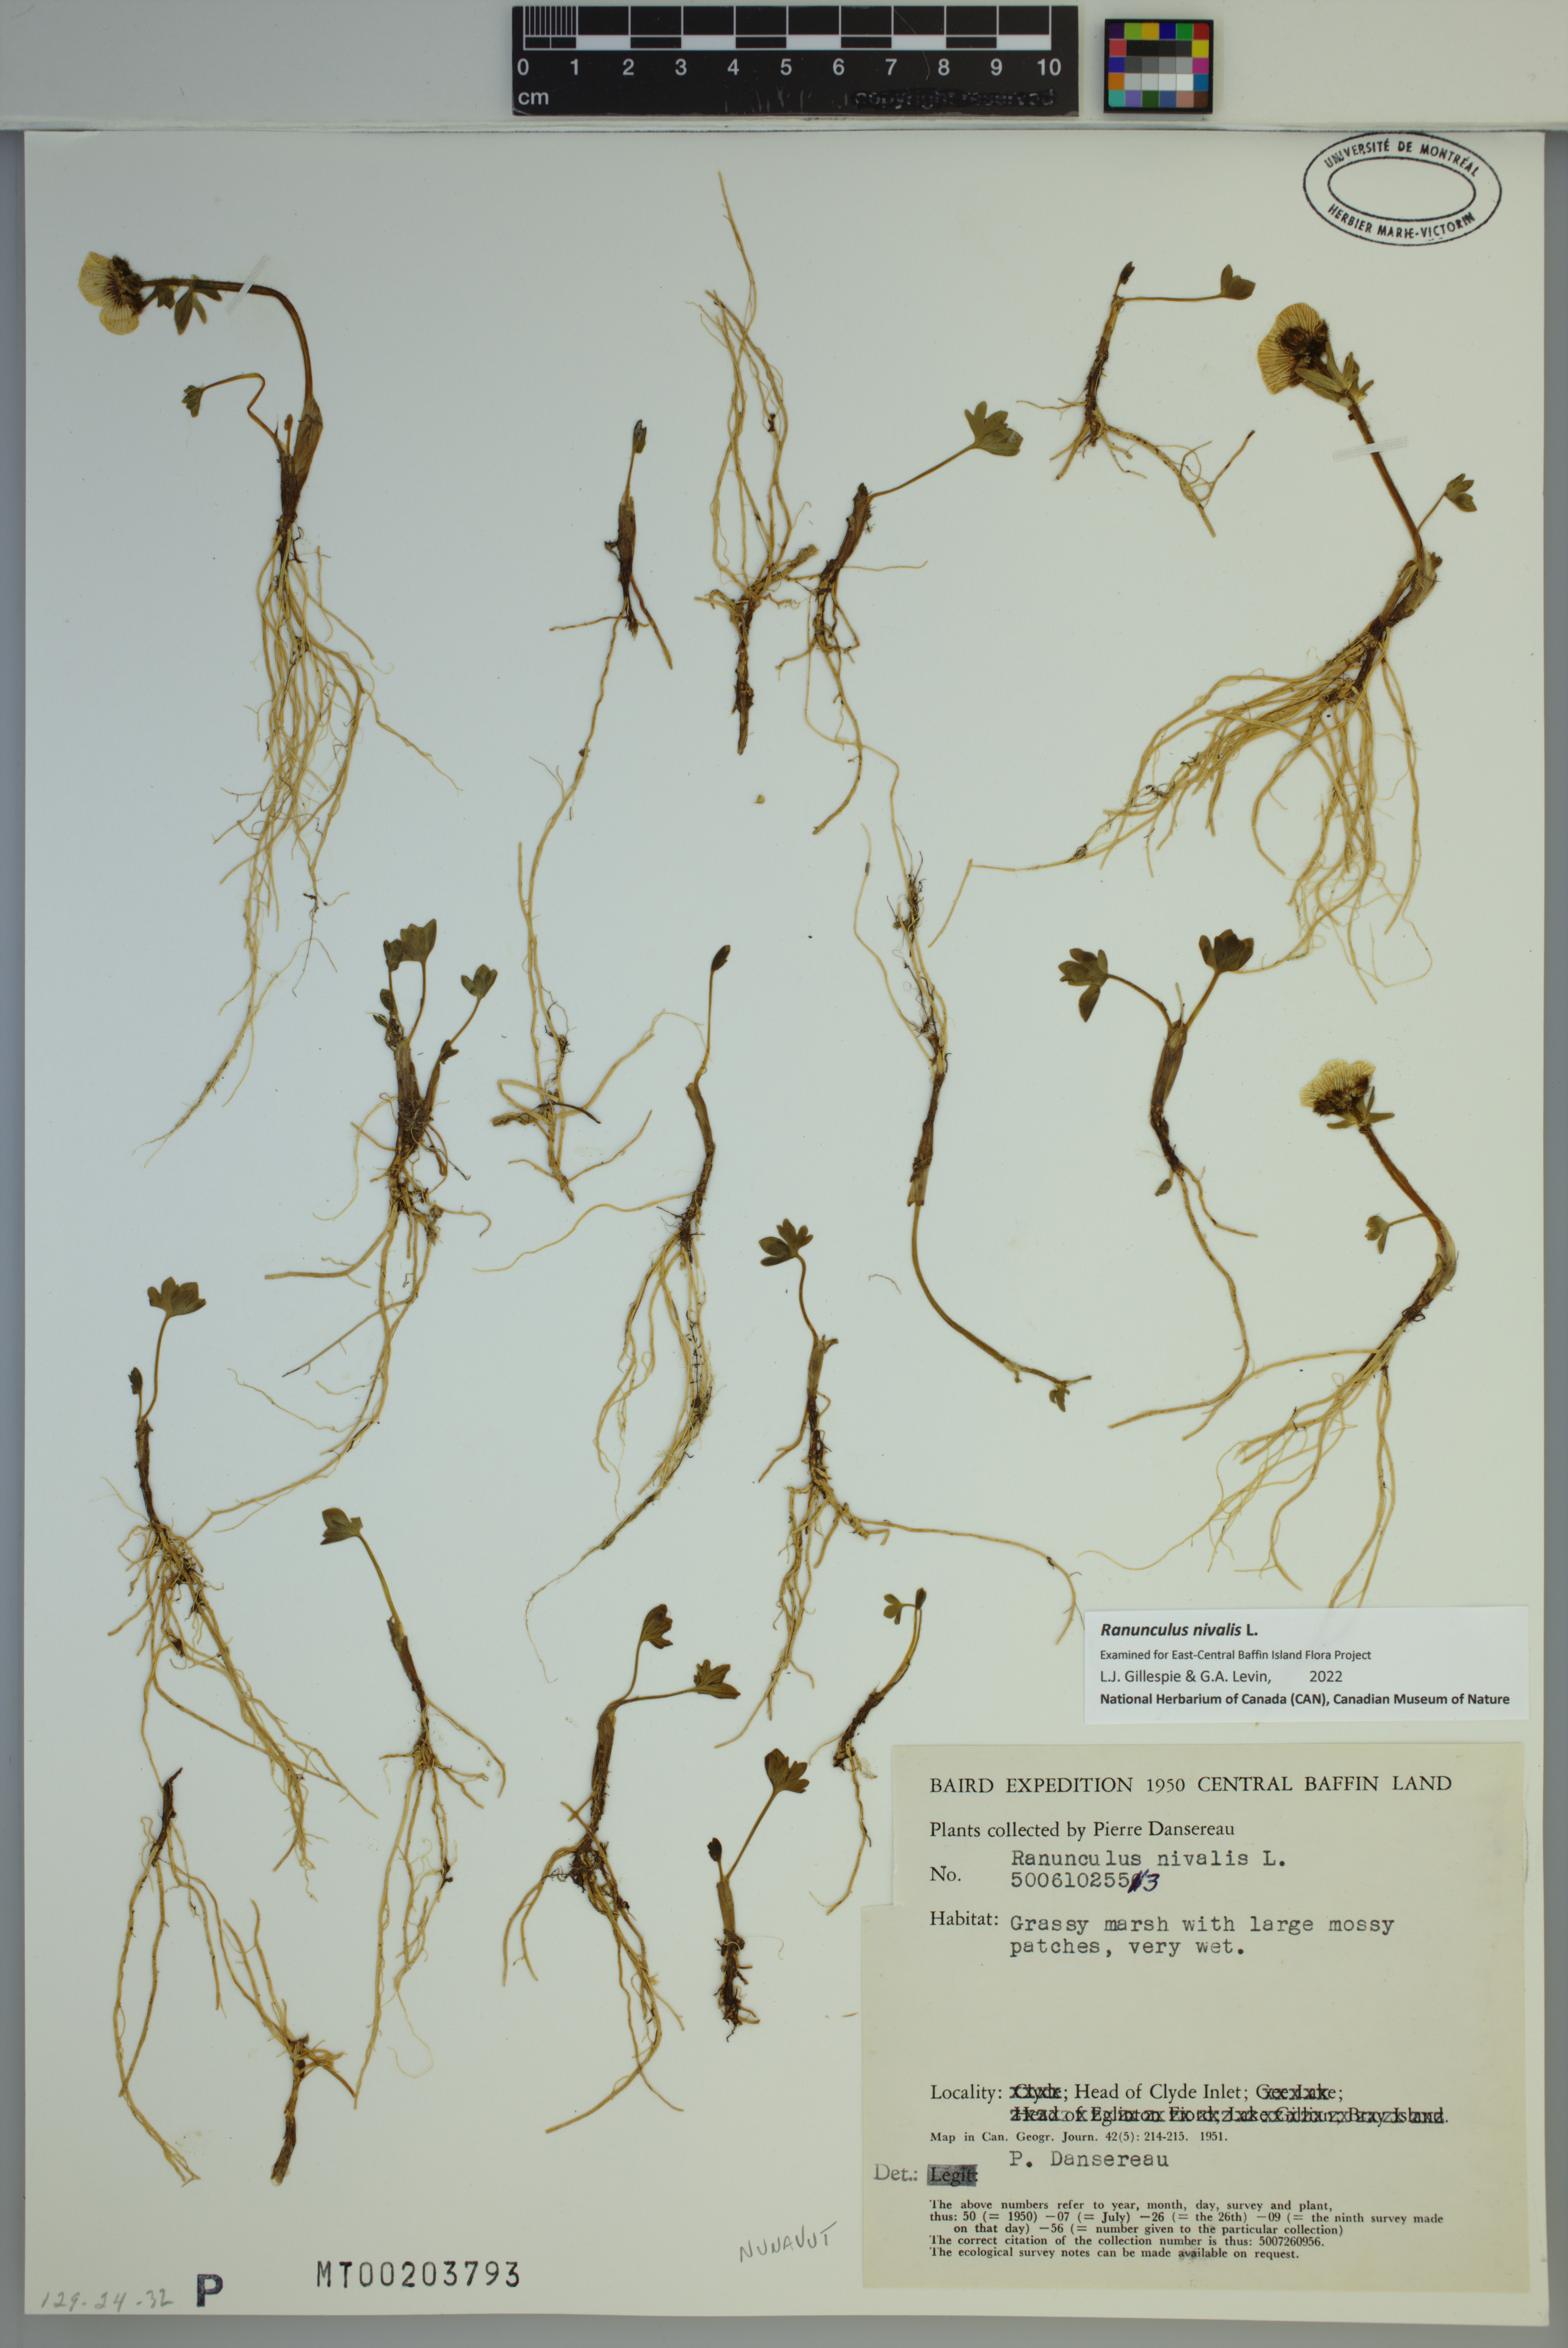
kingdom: Plantae
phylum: Tracheophyta
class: Magnoliopsida
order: Ranunculales
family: Ranunculaceae
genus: Ranunculus
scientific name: Ranunculus nivalis
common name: Snow buttercup
